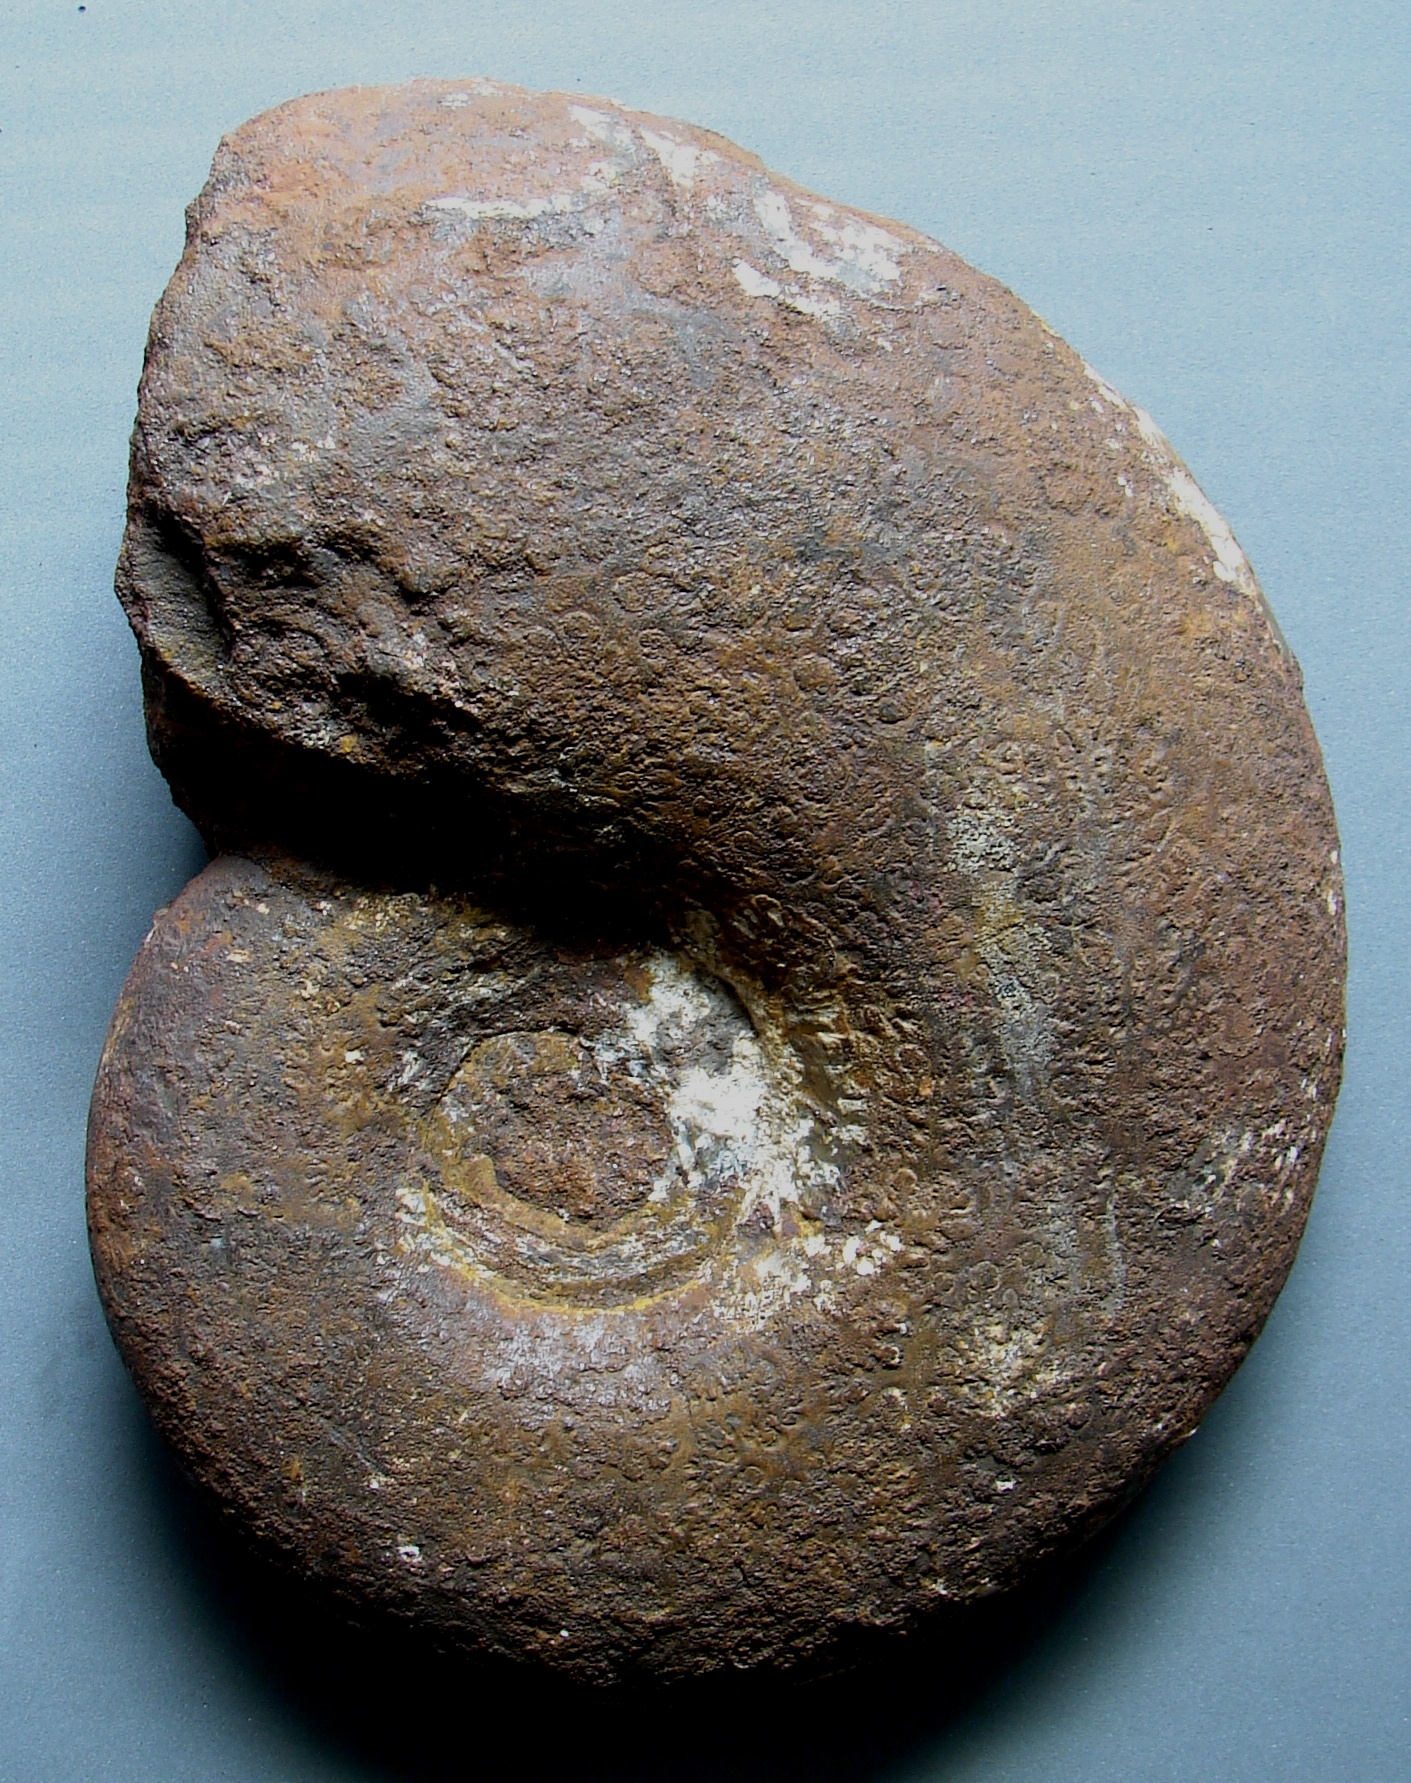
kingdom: Animalia
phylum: Mollusca
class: Cephalopoda
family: Lytoceratidae
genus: Pleurolytoceras
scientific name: Pleurolytoceras wrighti
